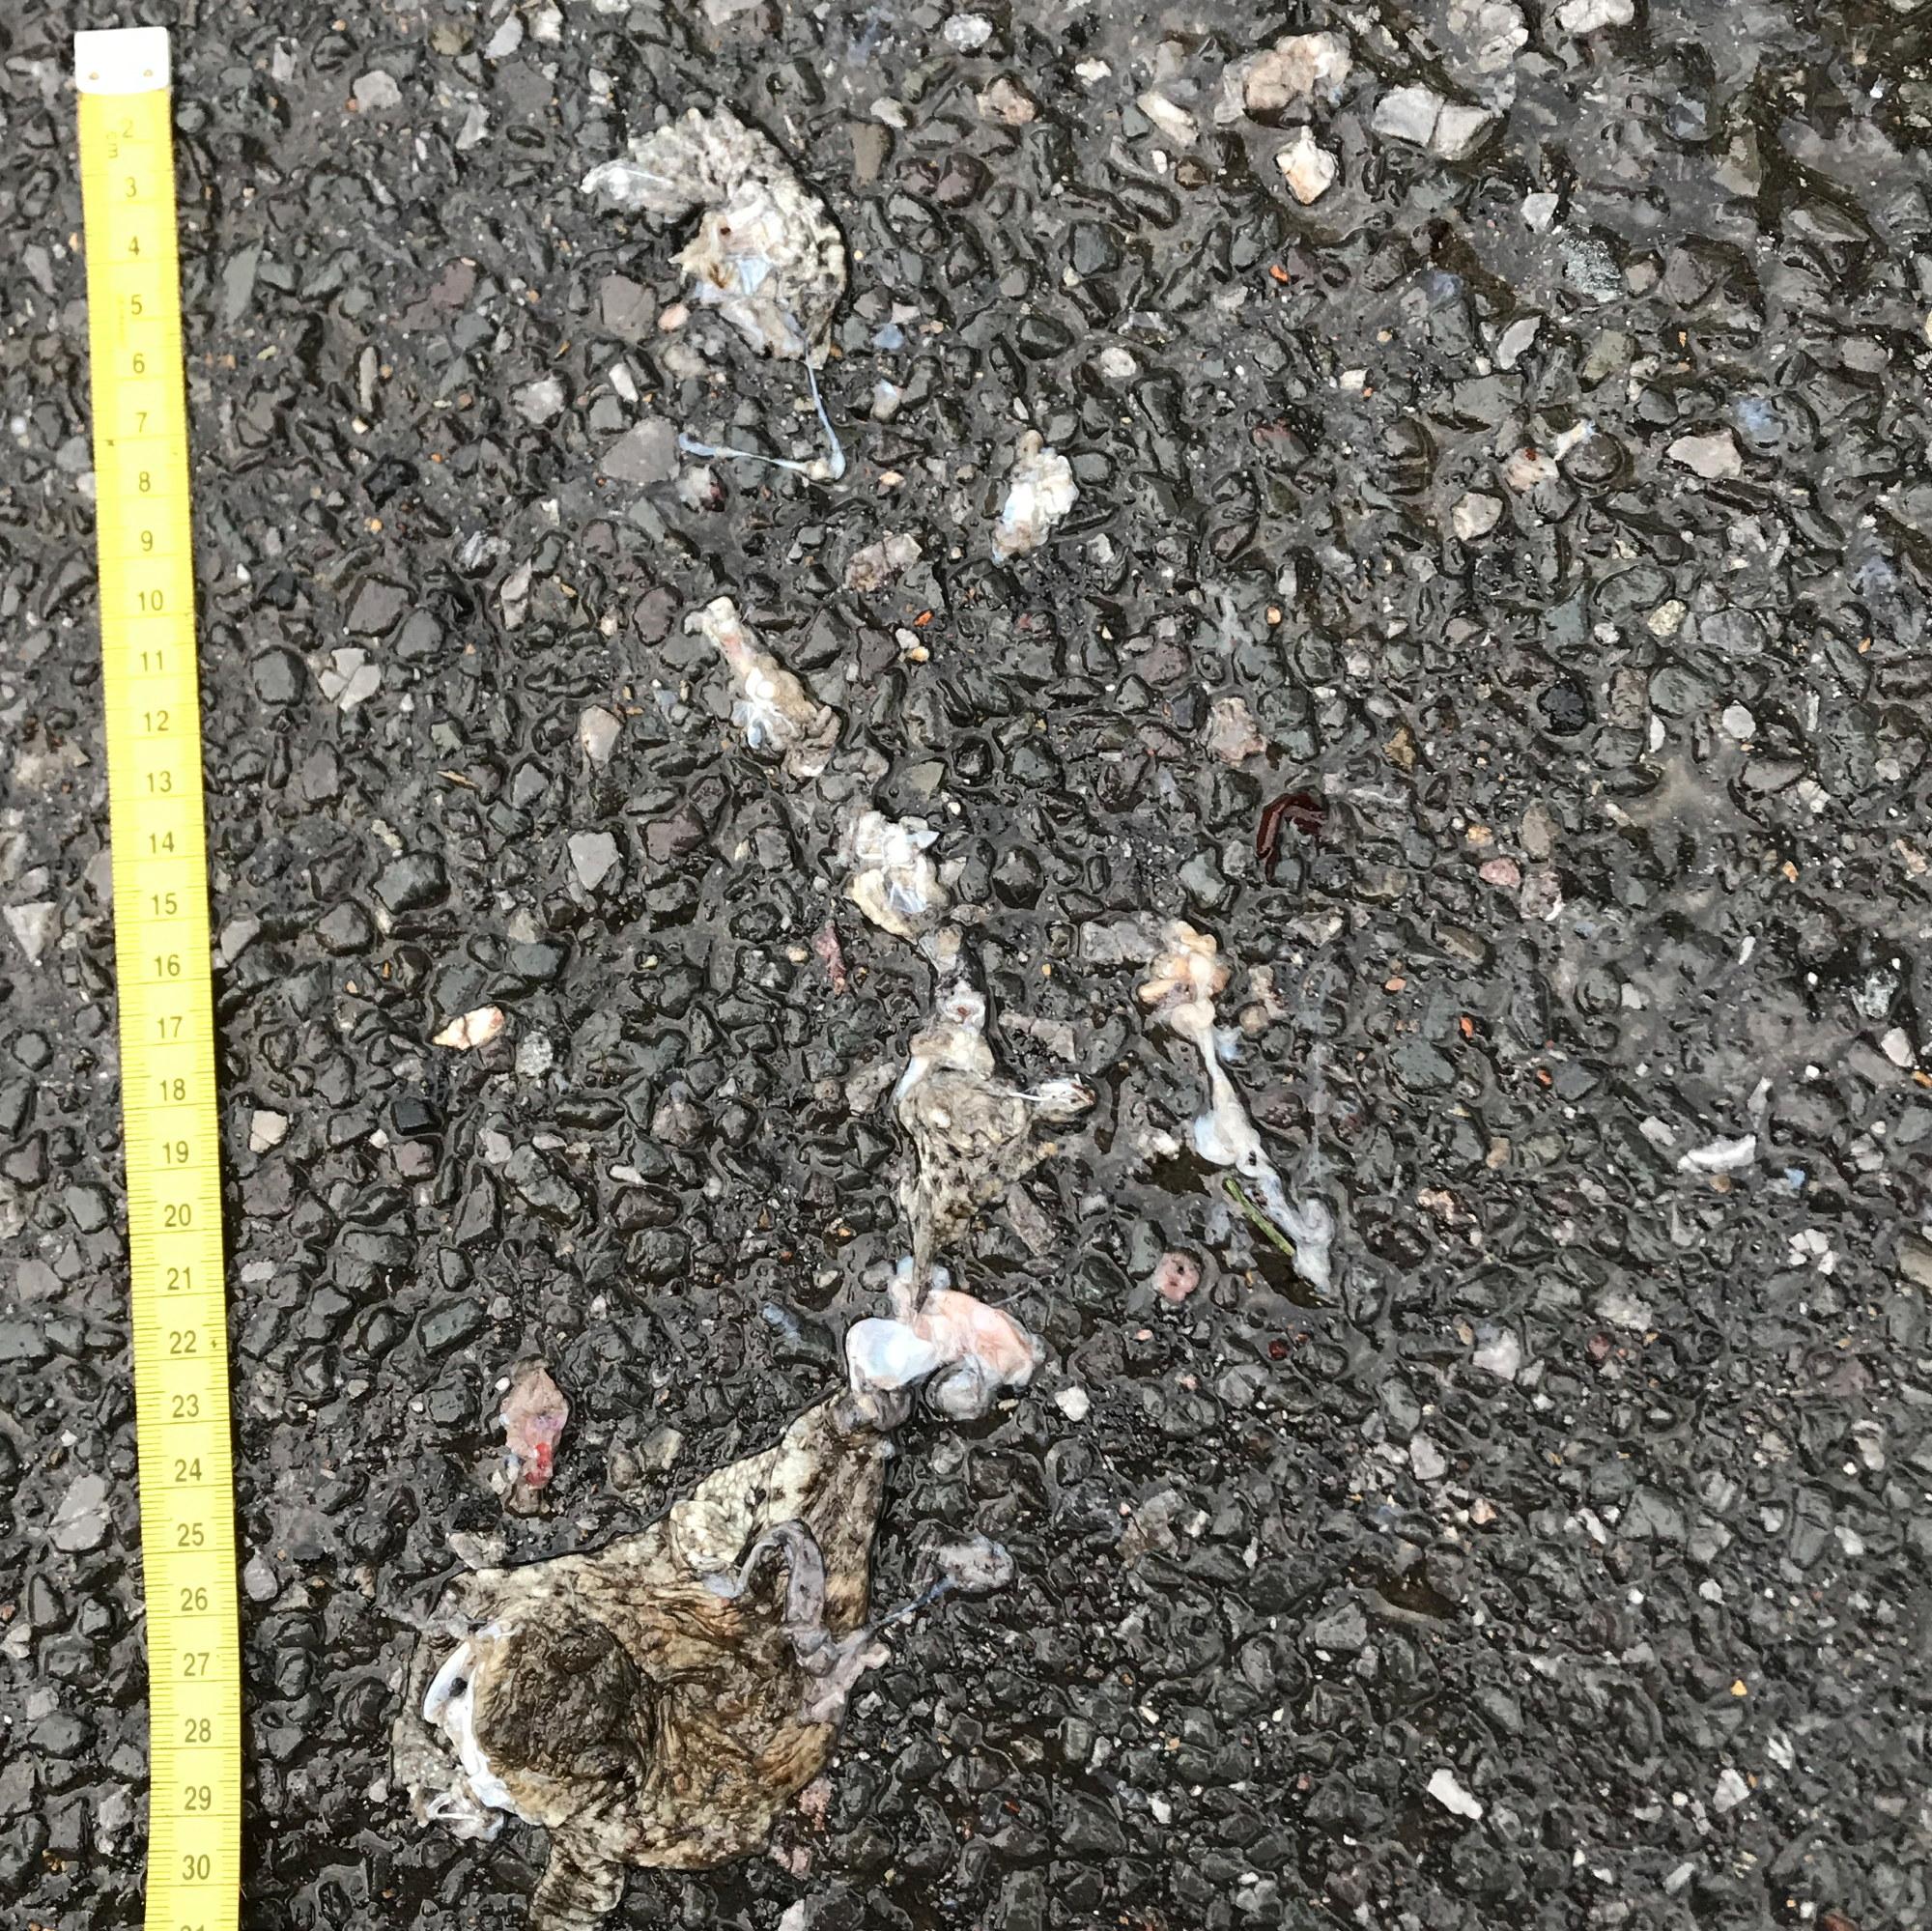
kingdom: Animalia
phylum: Chordata
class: Amphibia
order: Anura
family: Bufonidae
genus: Bufo
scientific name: Bufo bufo
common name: Common toad
